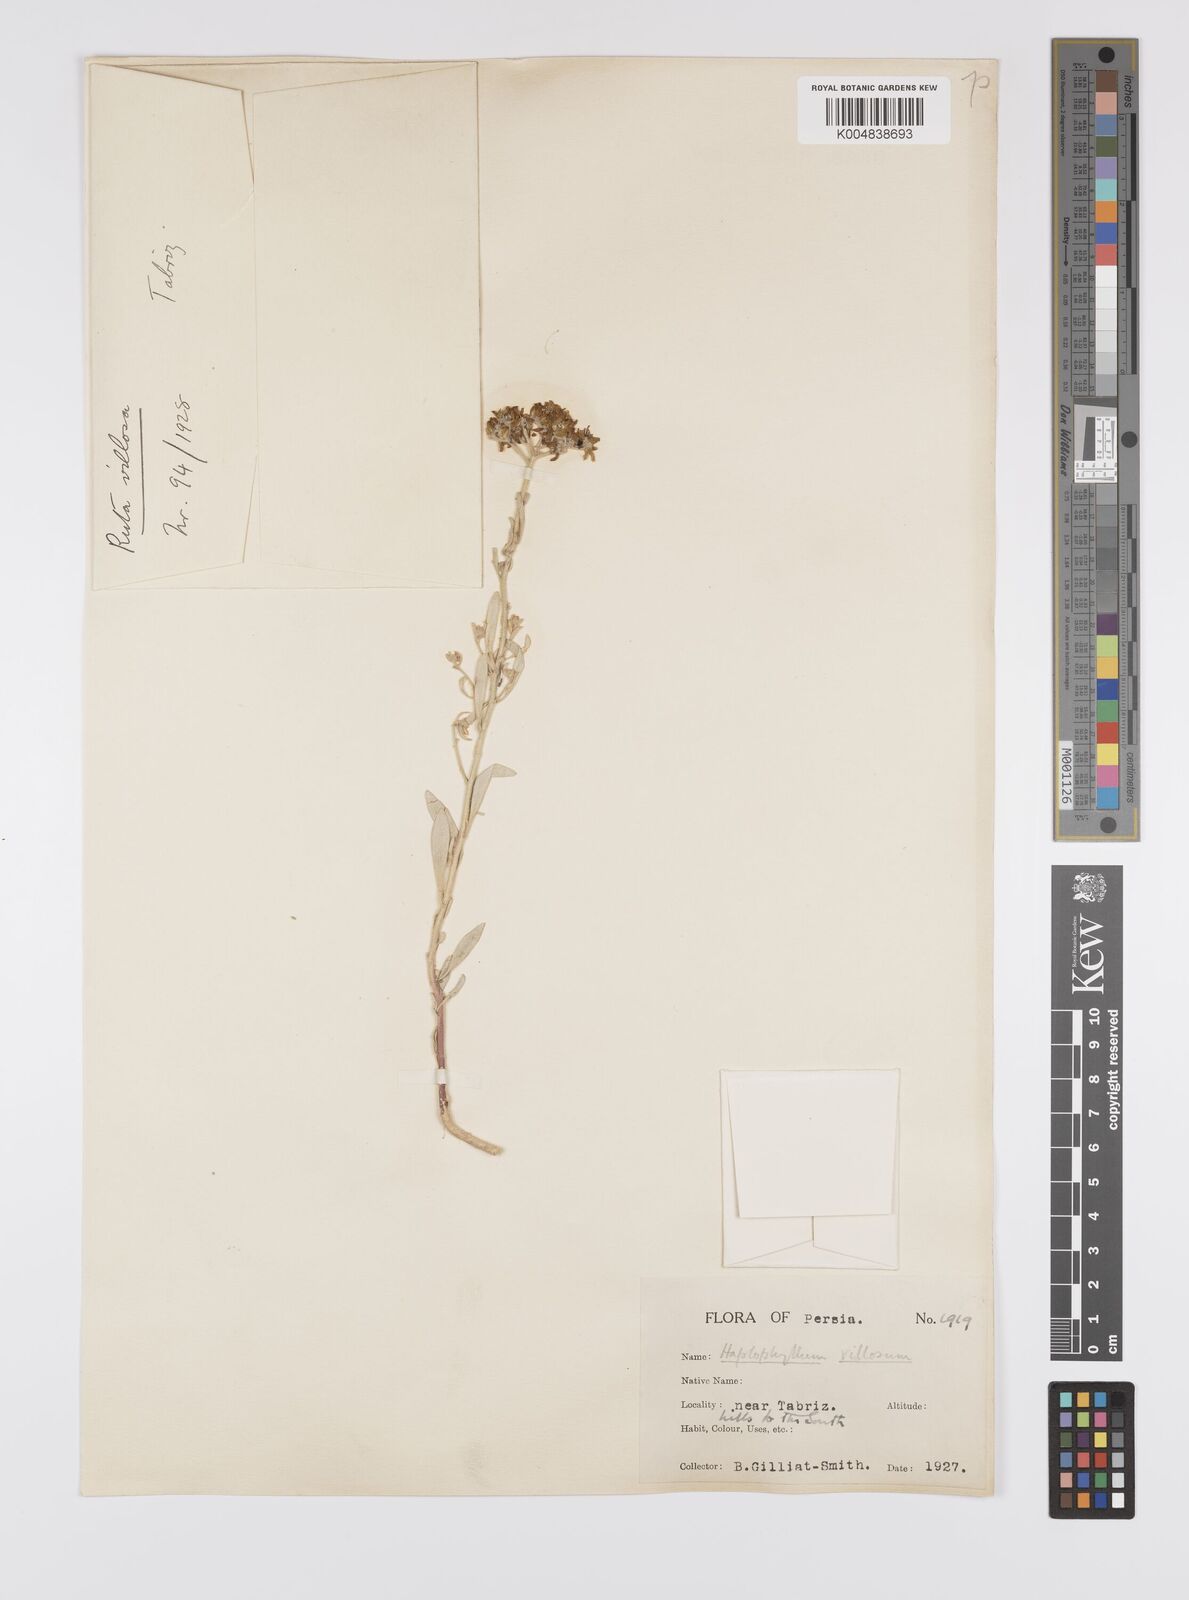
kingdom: Plantae
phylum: Tracheophyta
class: Magnoliopsida
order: Sapindales
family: Rutaceae
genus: Haplophyllum
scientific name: Haplophyllum villosum
